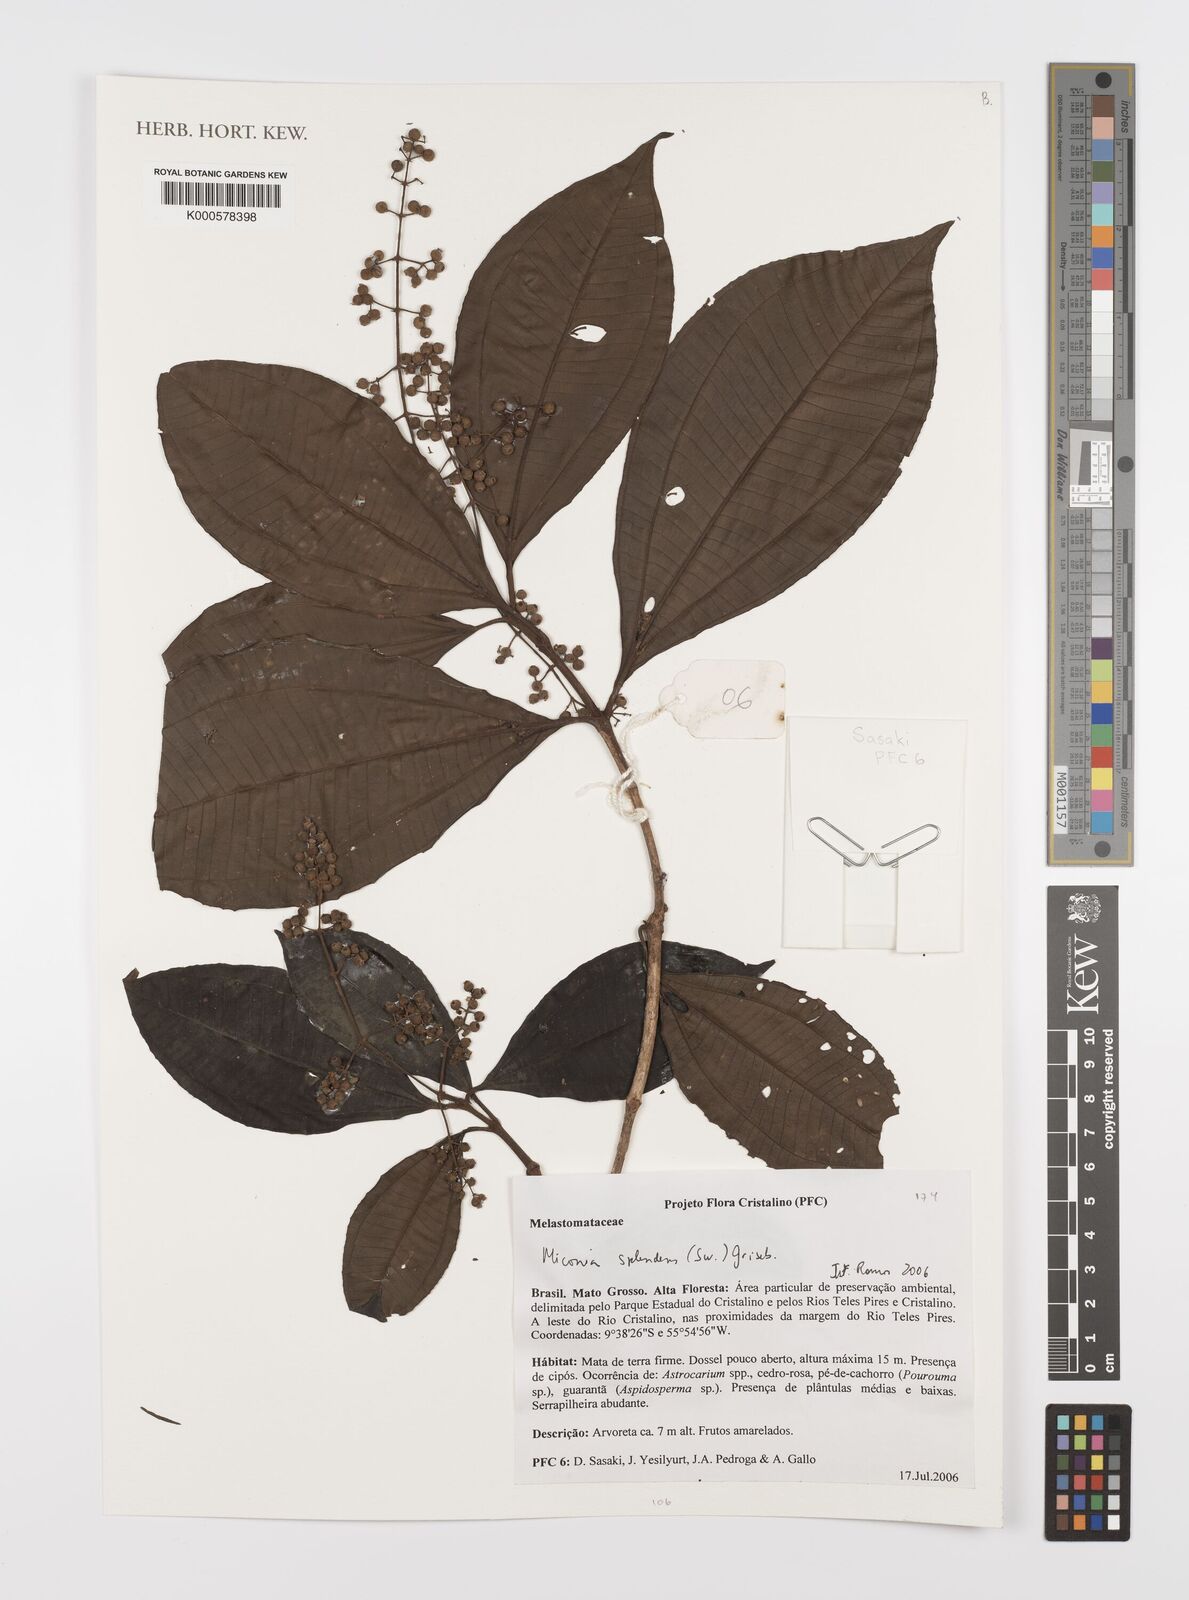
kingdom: Plantae
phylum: Tracheophyta
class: Magnoliopsida
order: Myrtales
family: Melastomataceae
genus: Miconia
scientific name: Miconia splendens
